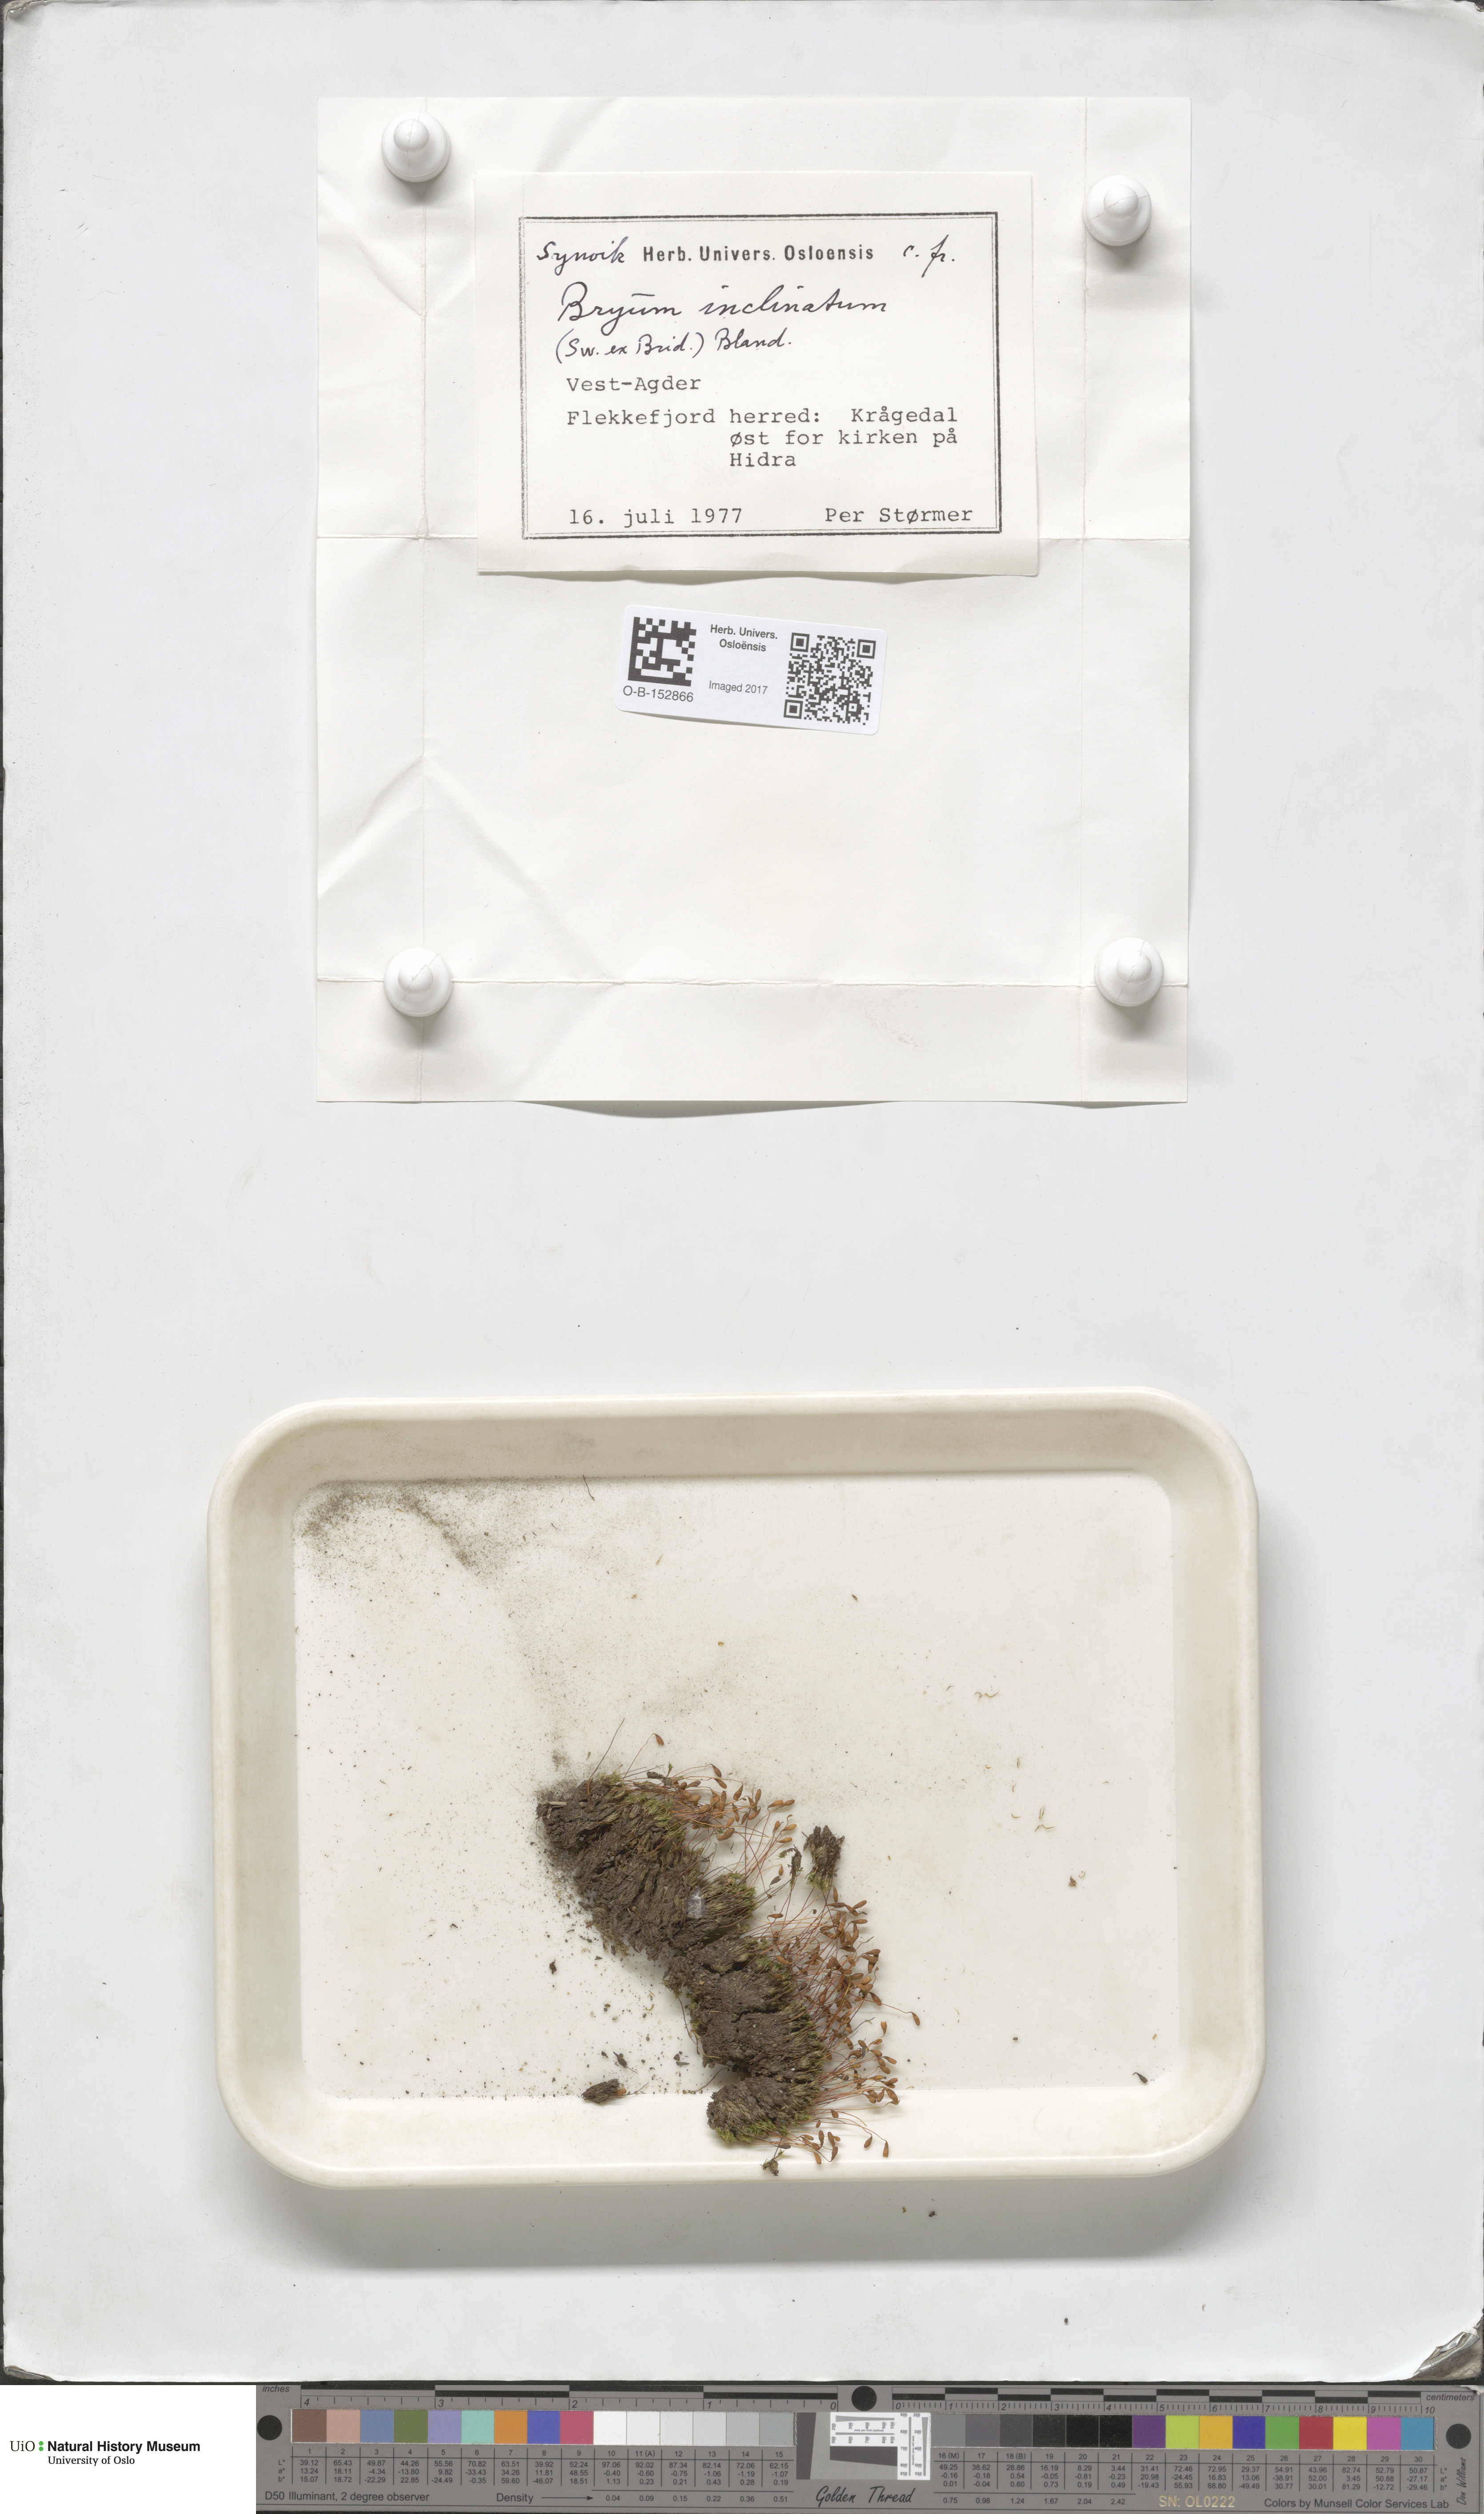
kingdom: Plantae
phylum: Bryophyta
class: Bryopsida
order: Bryales
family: Bryaceae
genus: Ptychostomum
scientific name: Ptychostomum inclinatum
